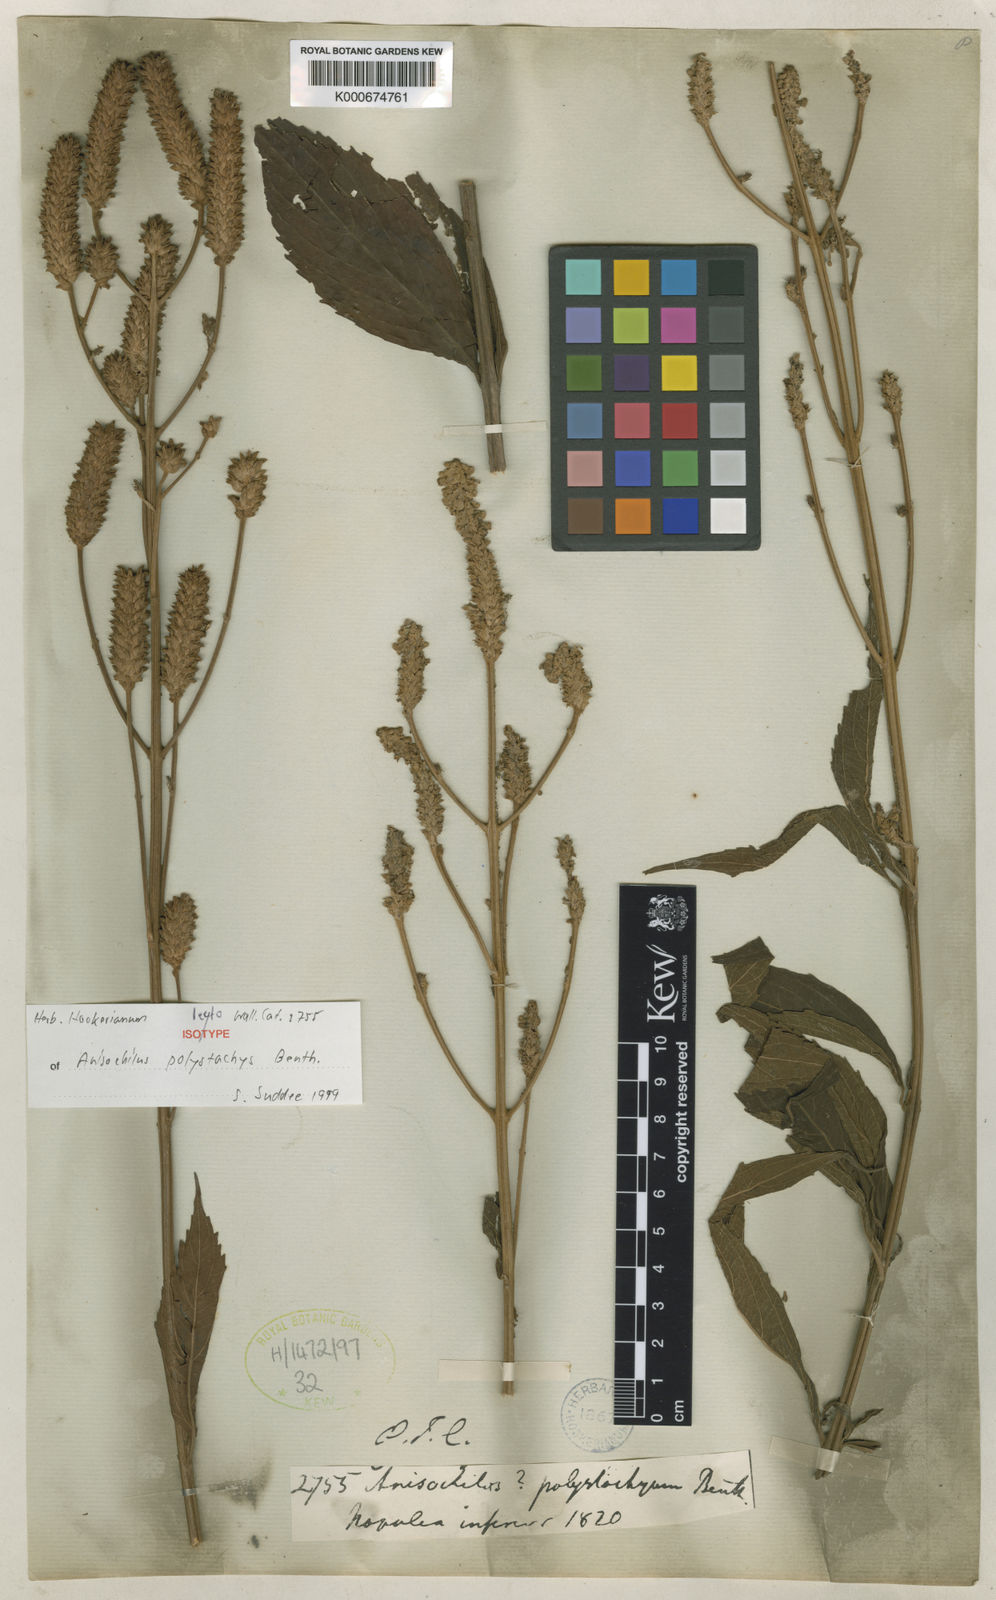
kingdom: Plantae
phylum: Tracheophyta
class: Magnoliopsida
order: Lamiales
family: Lamiaceae
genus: Coleus
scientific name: Coleus polystachyus
